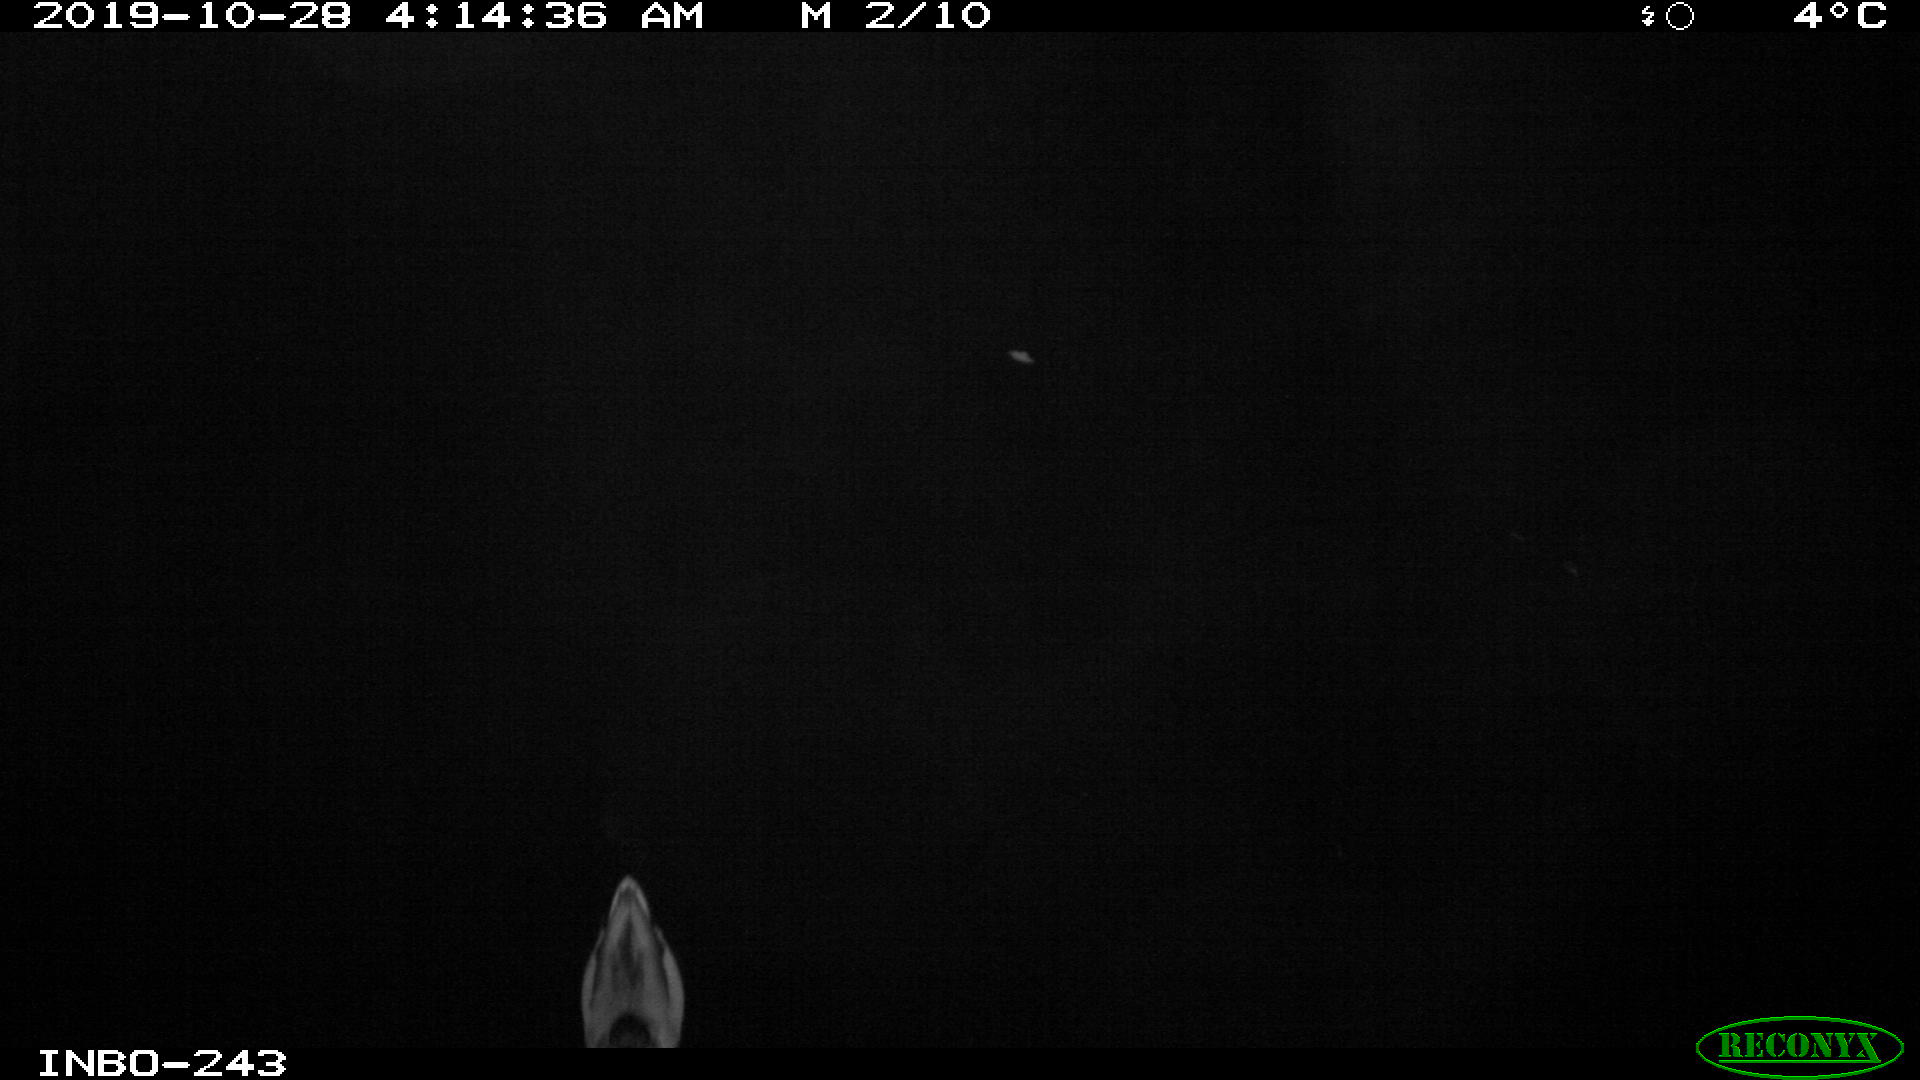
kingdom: Animalia
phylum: Chordata
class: Aves
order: Anseriformes
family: Anatidae
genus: Anas
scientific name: Anas platyrhynchos
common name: Mallard
